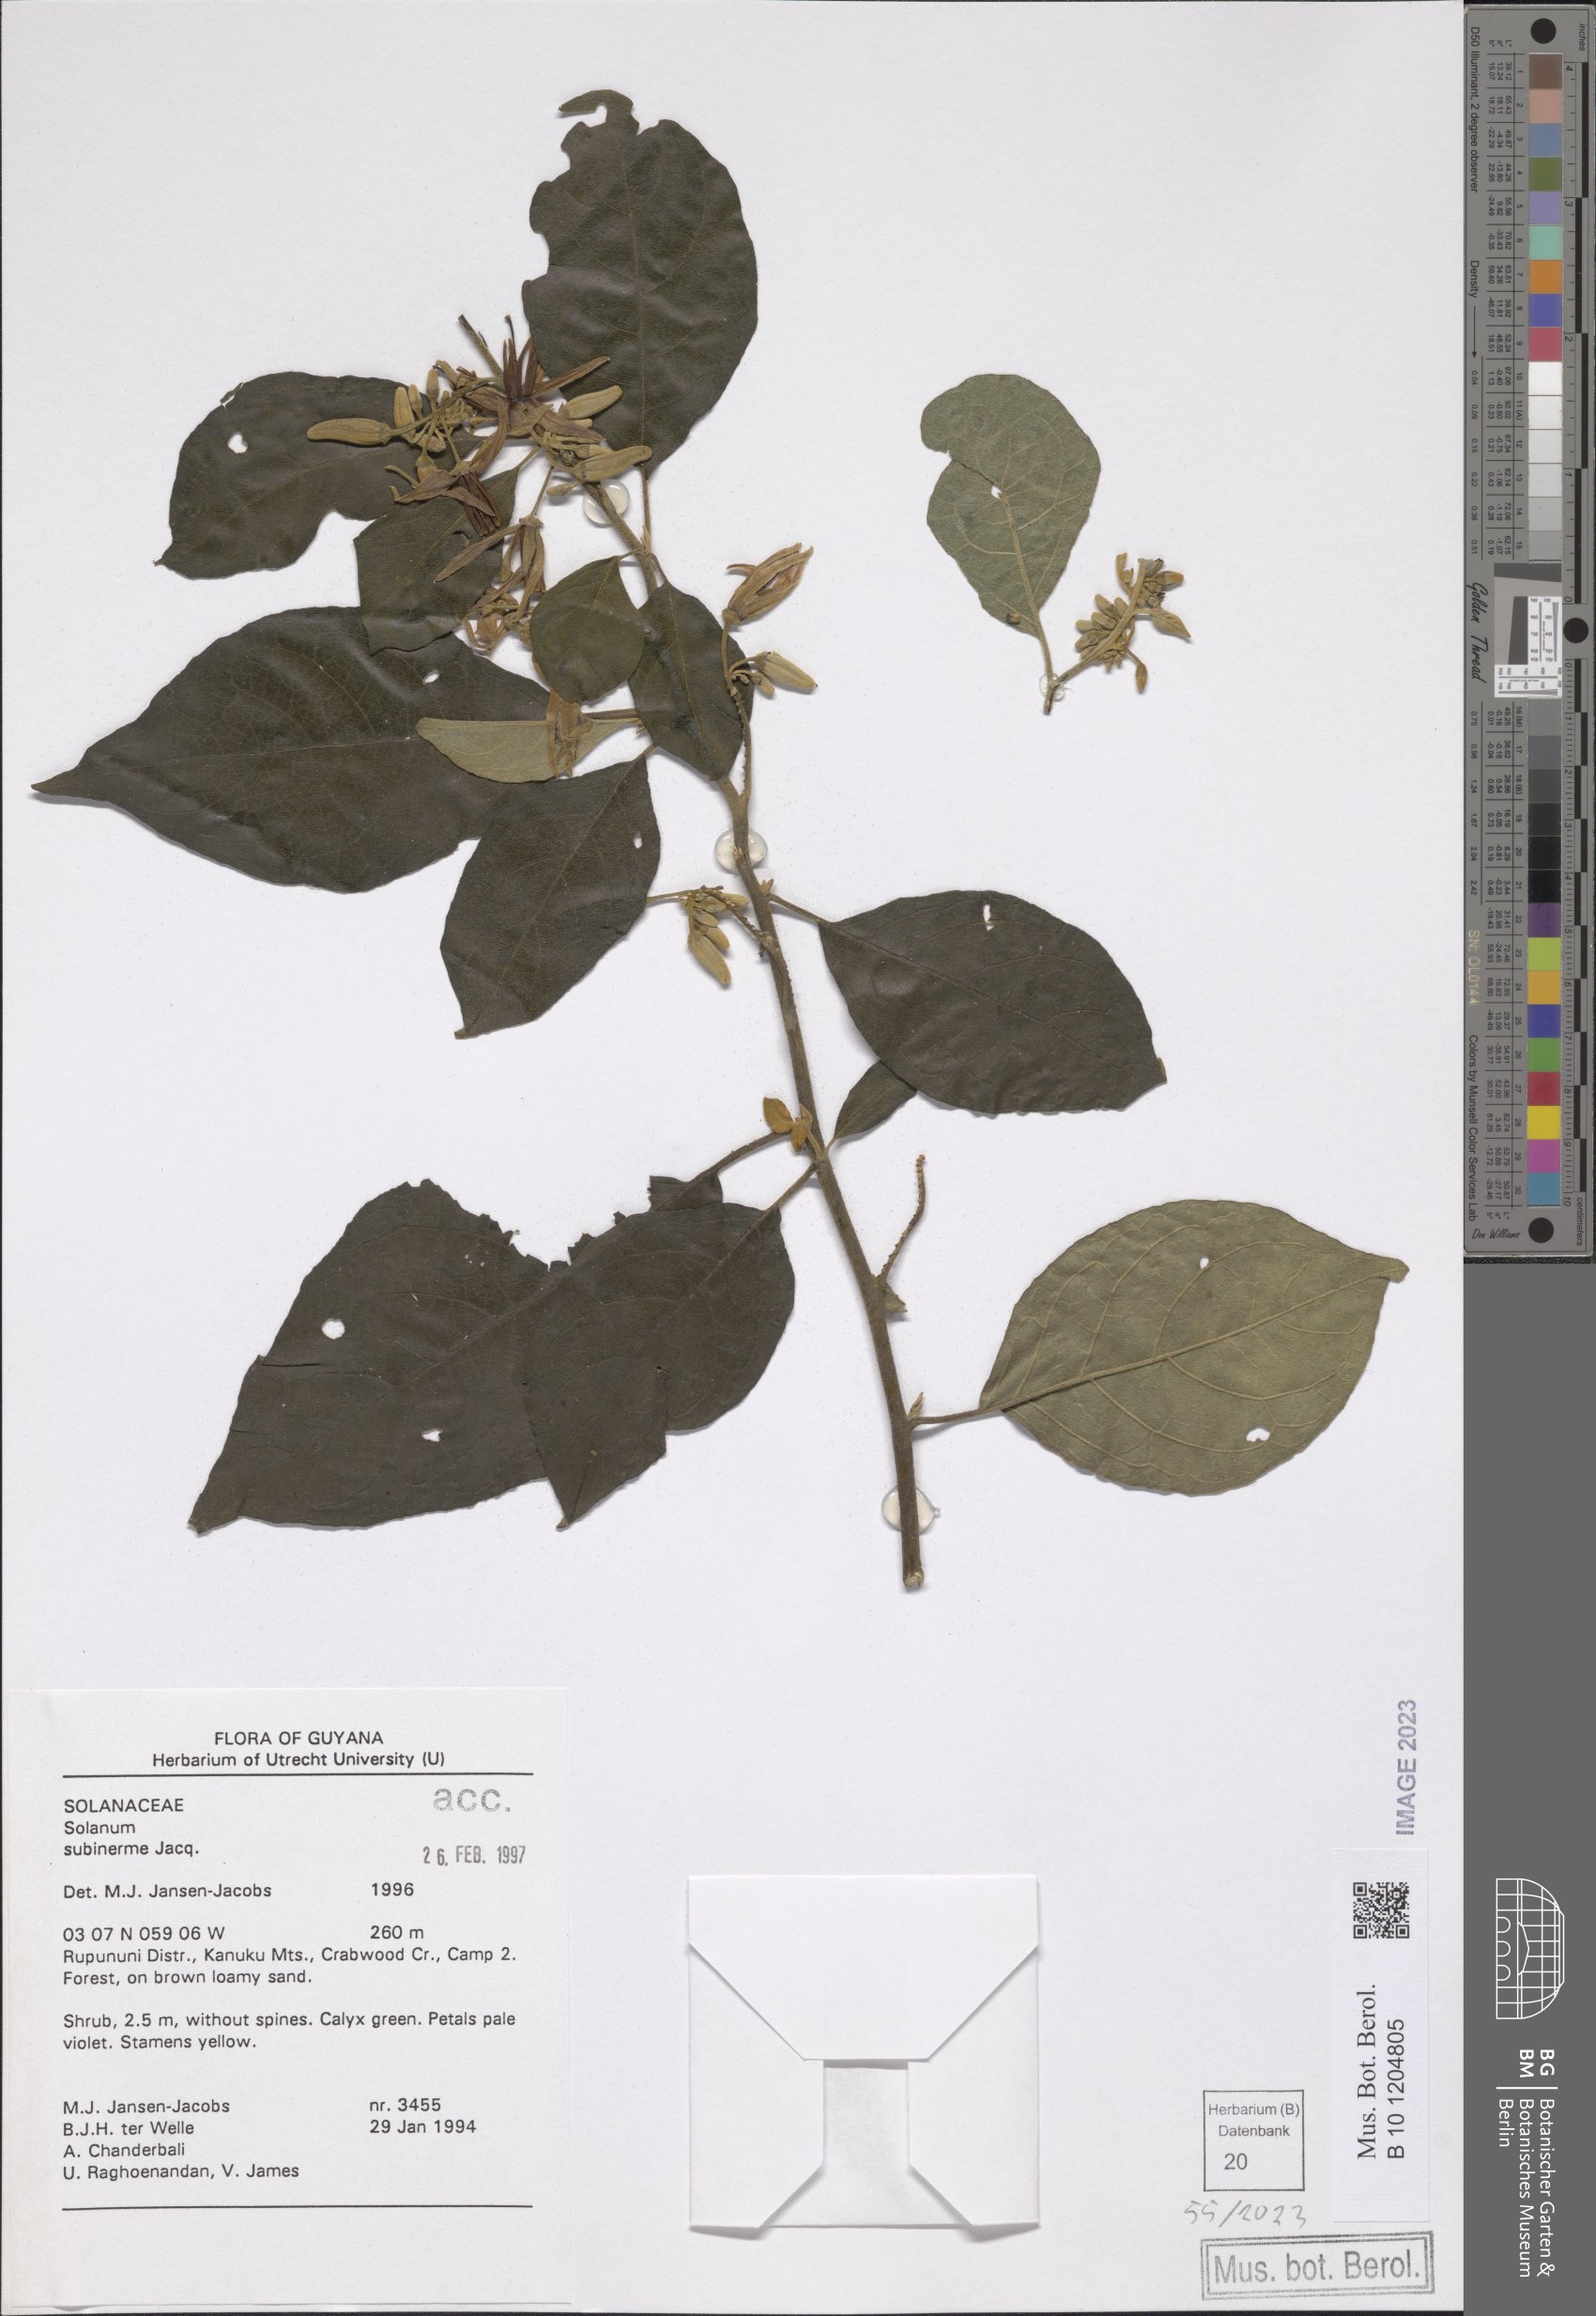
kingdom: Plantae
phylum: Tracheophyta
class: Magnoliopsida
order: Solanales
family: Solanaceae
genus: Solanum
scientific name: Solanum subinerme
